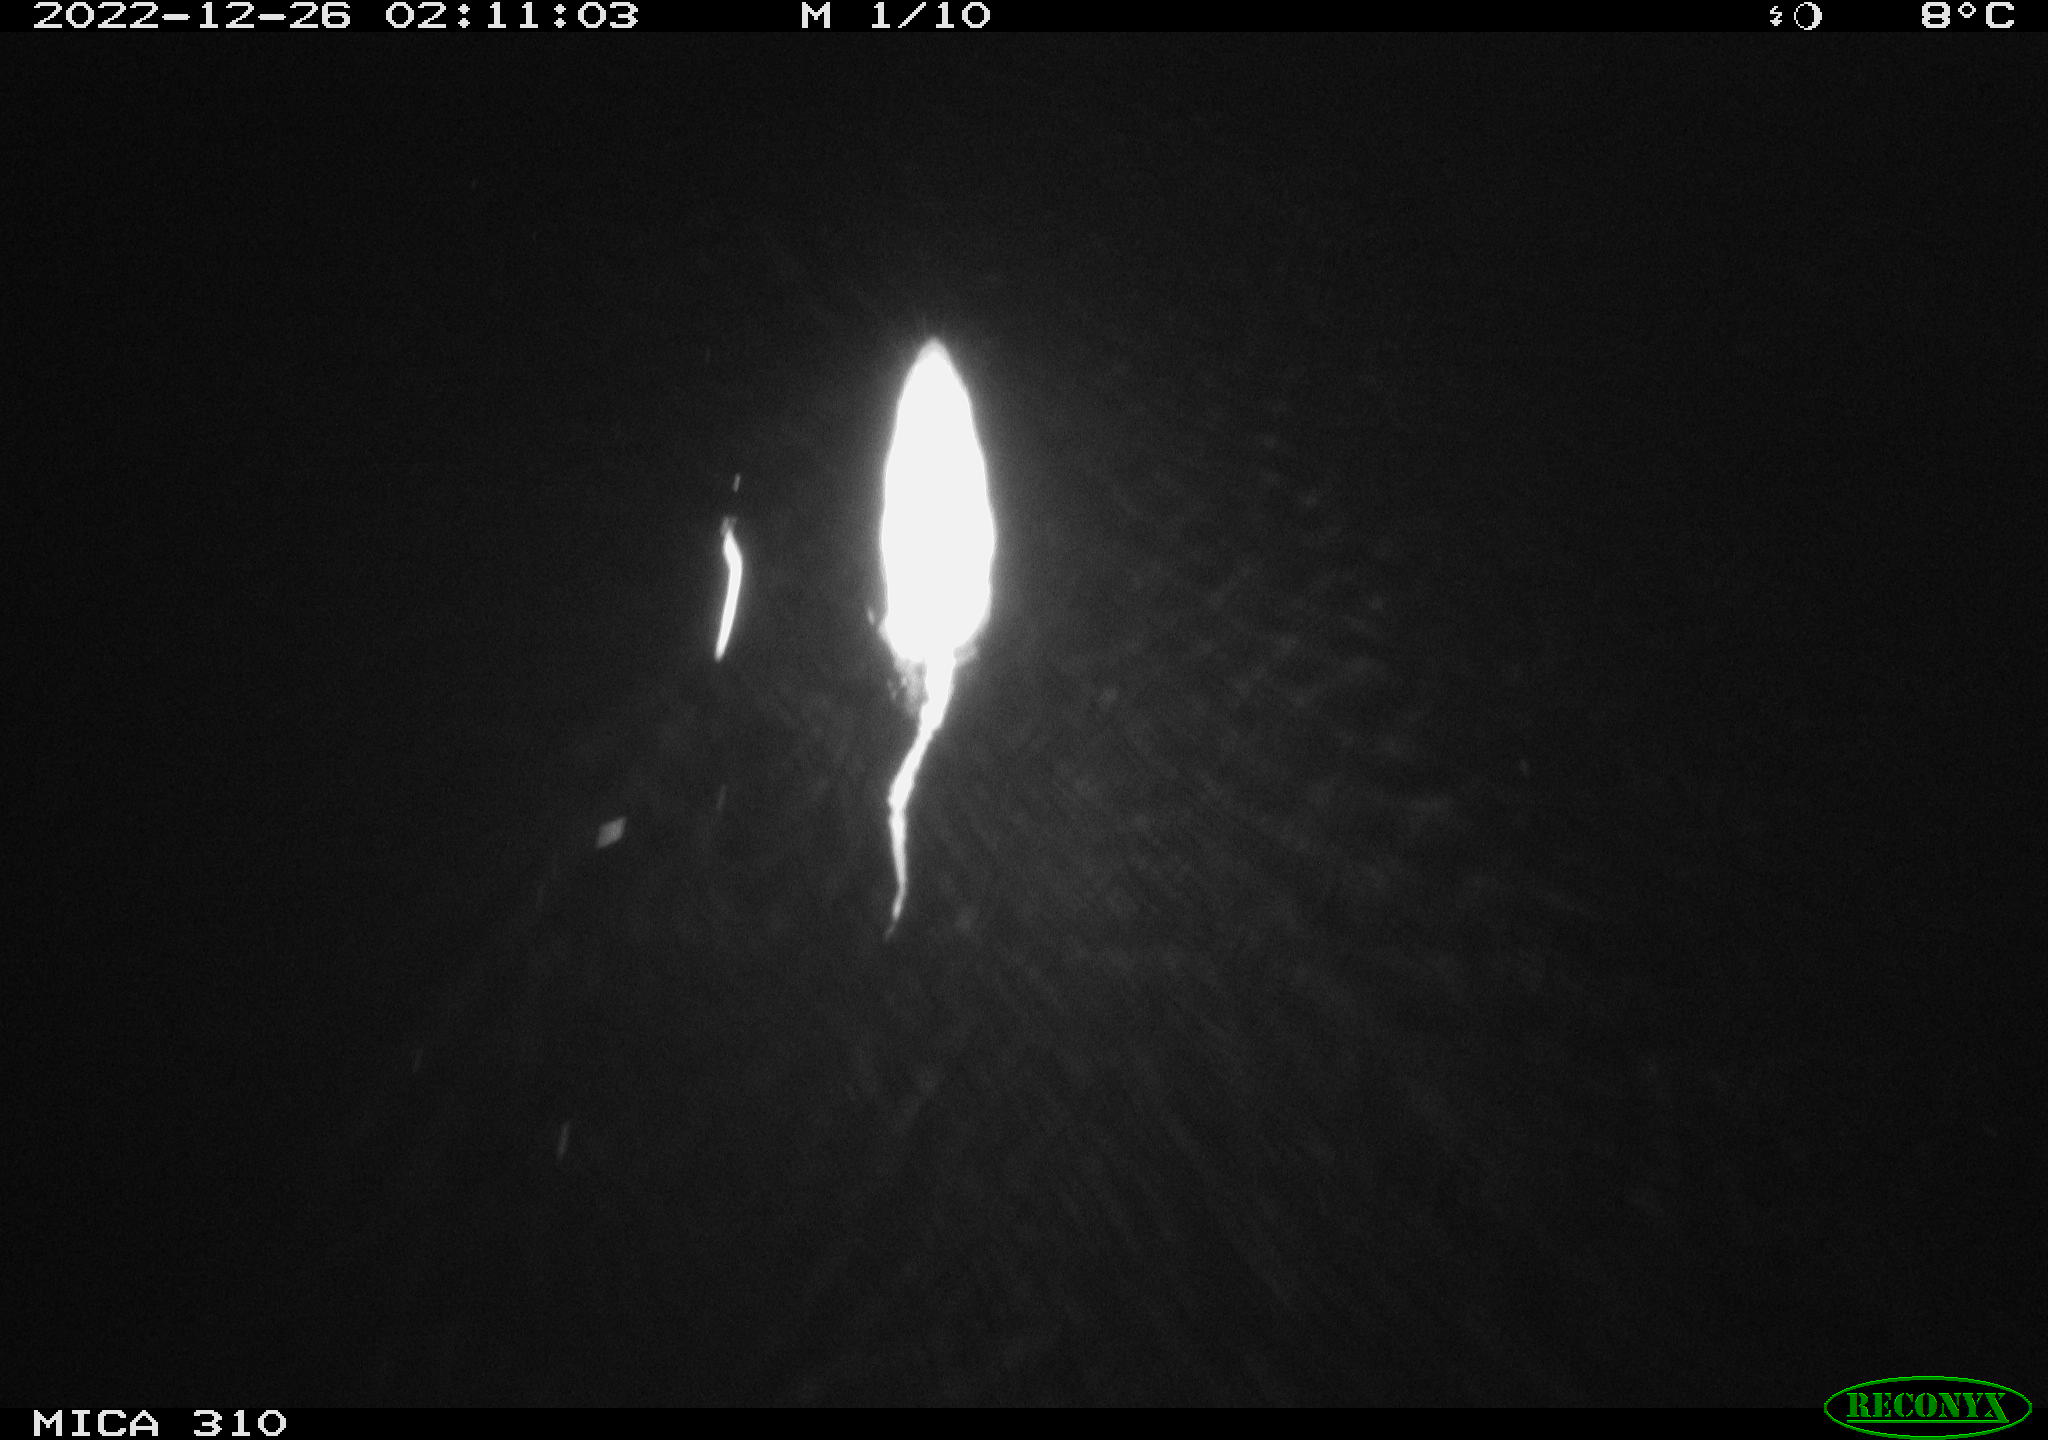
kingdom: Animalia
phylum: Chordata
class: Mammalia
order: Rodentia
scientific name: Rodentia
